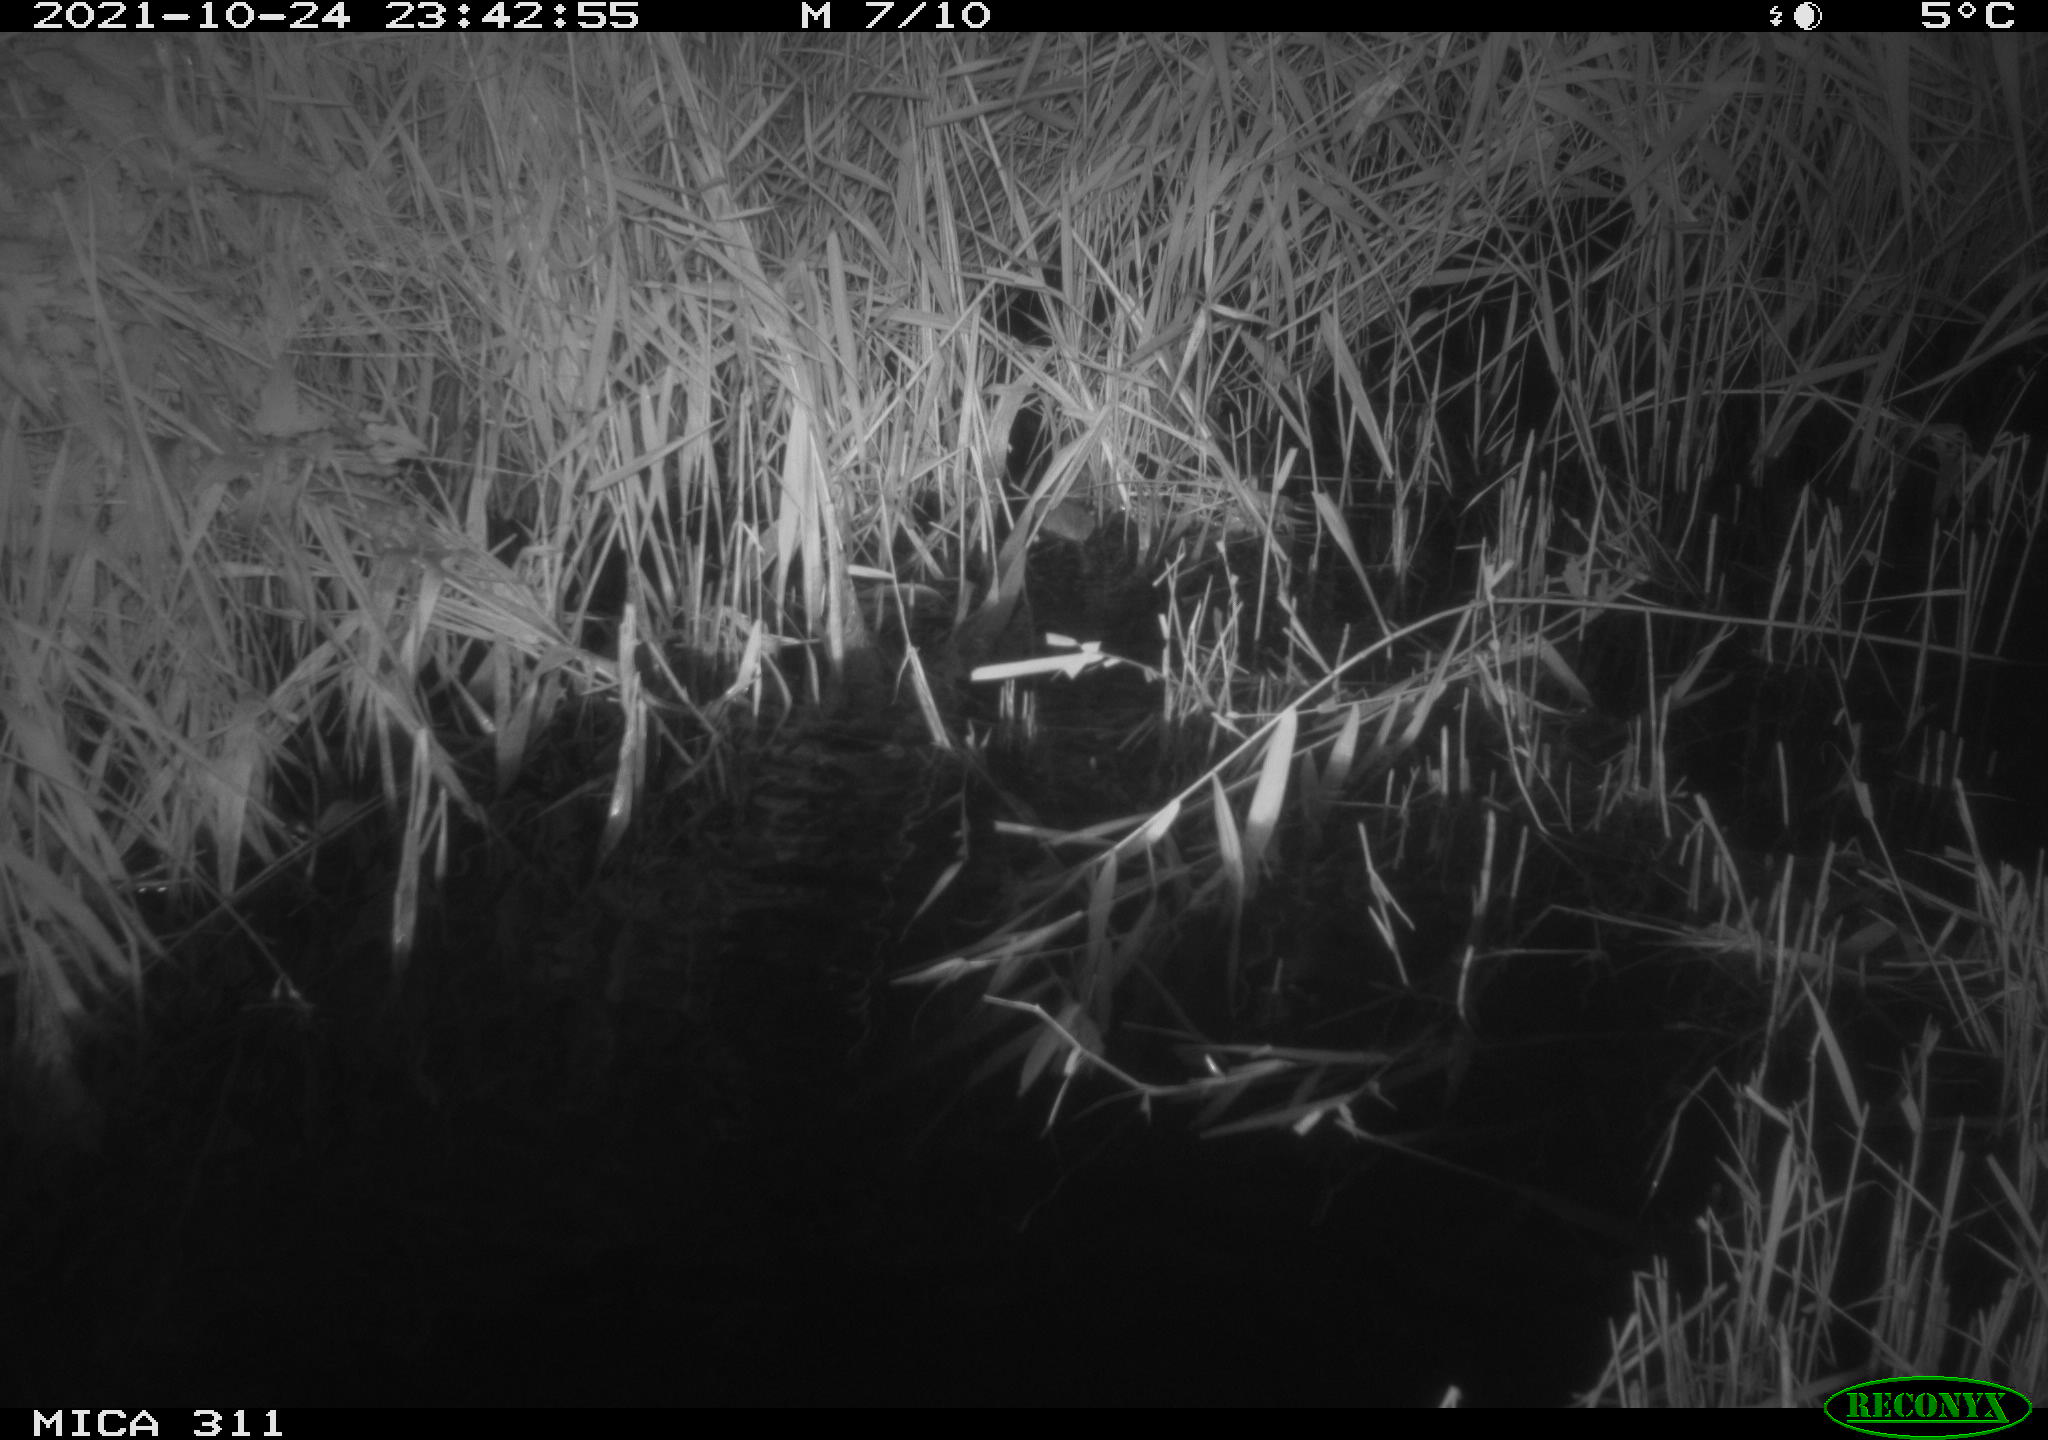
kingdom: Animalia
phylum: Chordata
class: Mammalia
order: Rodentia
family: Muridae
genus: Rattus
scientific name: Rattus norvegicus
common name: Brown rat
